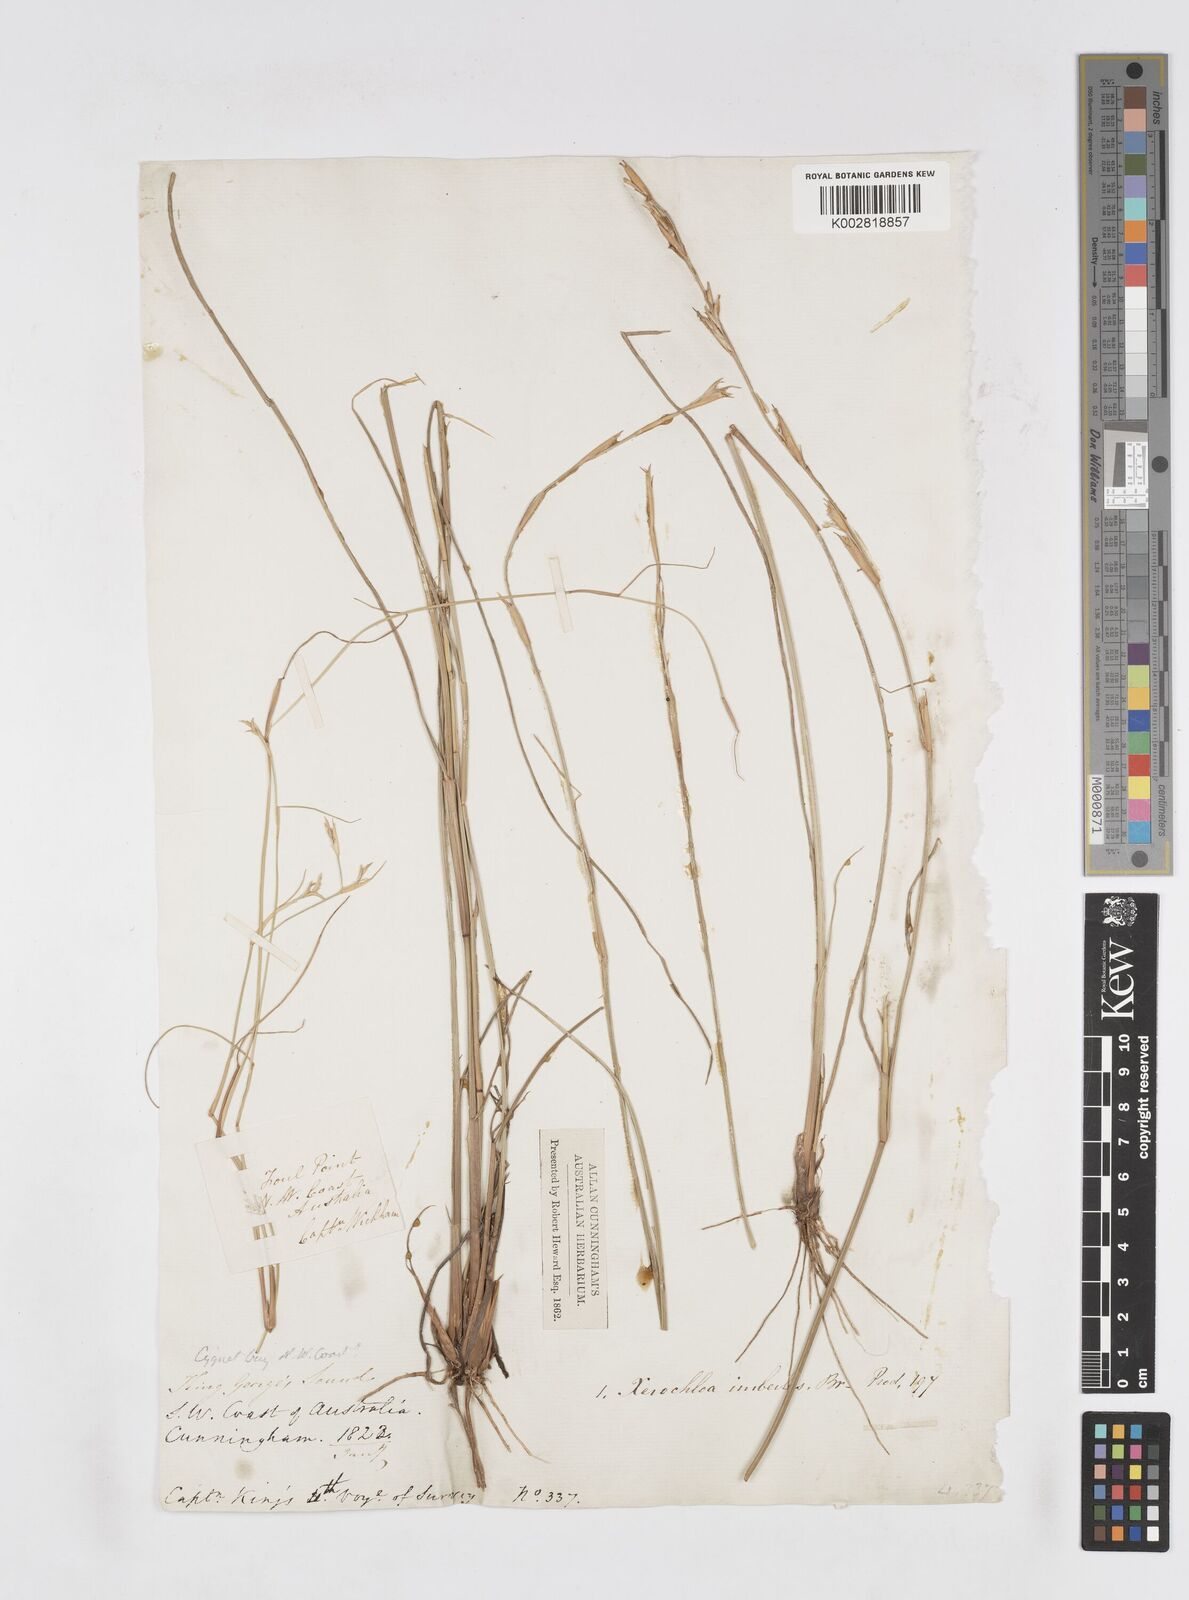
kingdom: Plantae
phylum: Tracheophyta
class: Liliopsida
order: Poales
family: Poaceae
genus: Xerochloa
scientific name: Xerochloa imberbis
